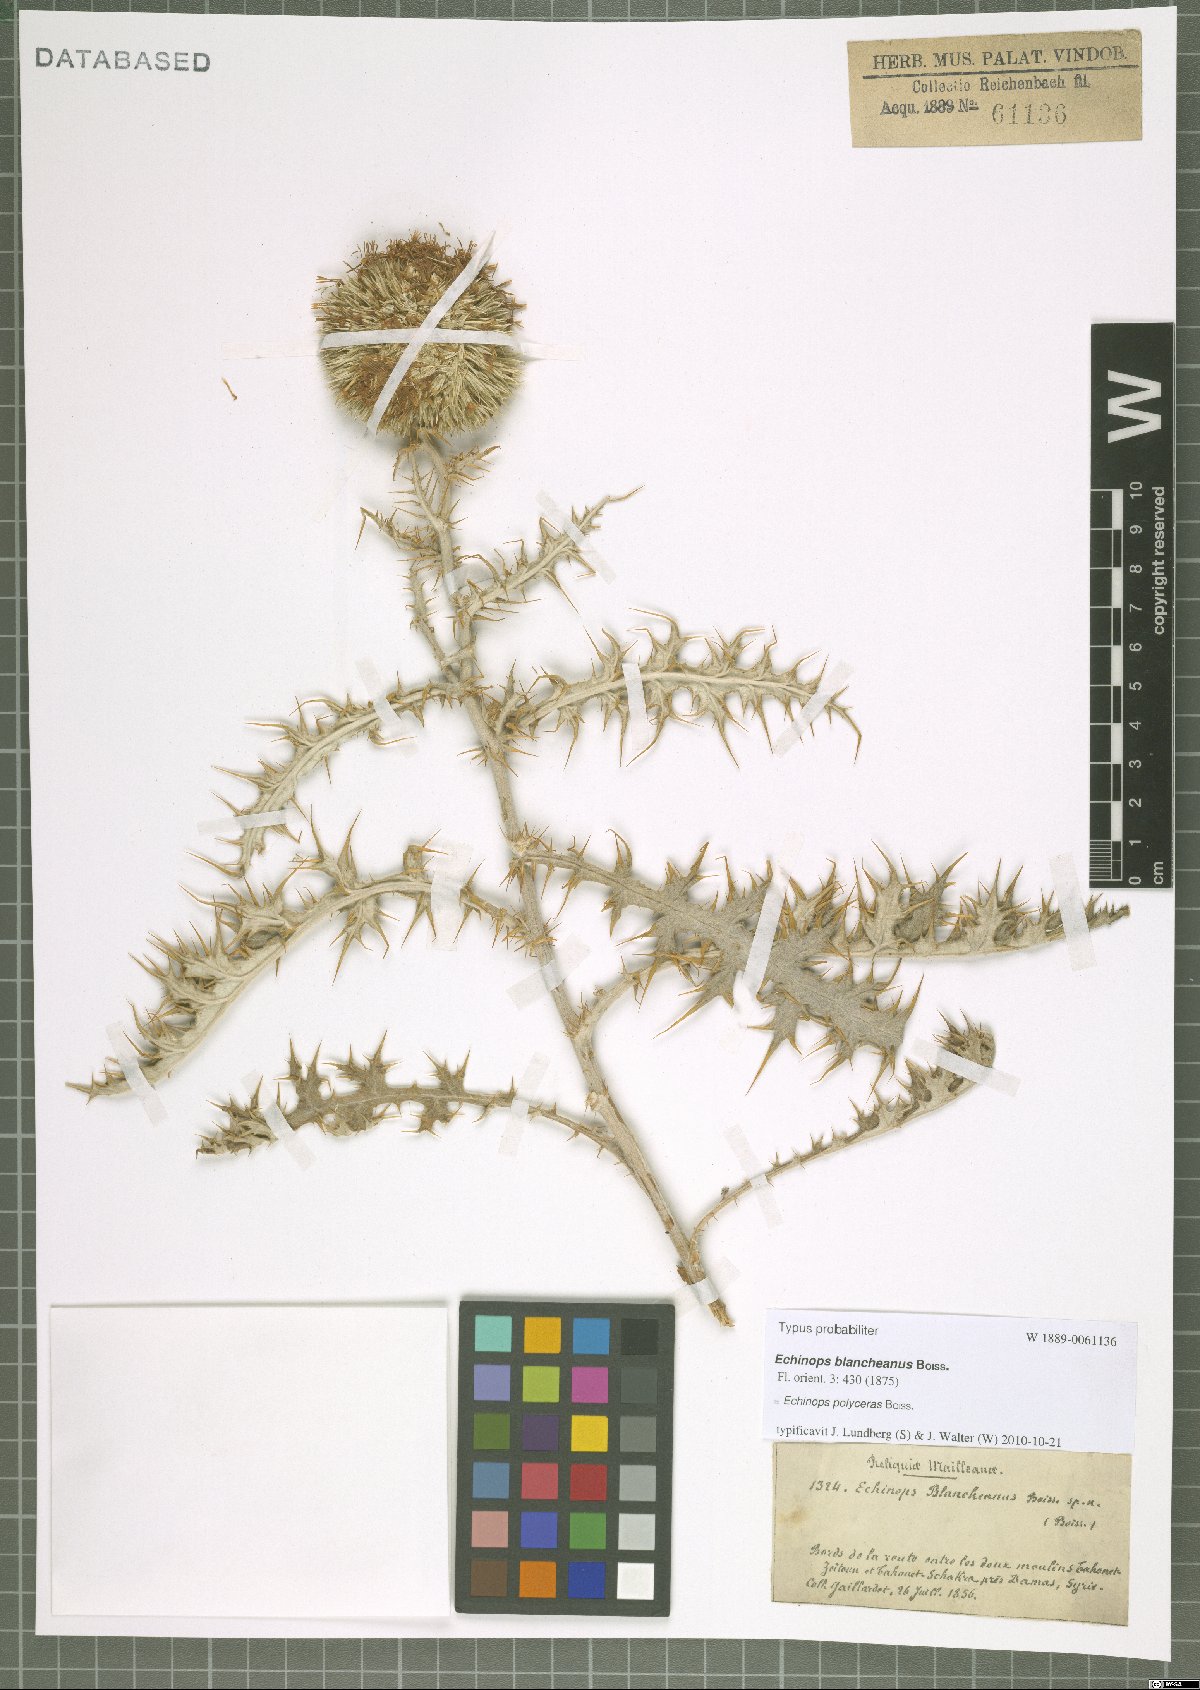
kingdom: Plantae
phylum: Tracheophyta
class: Magnoliopsida
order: Asterales
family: Asteraceae
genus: Echinops
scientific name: Echinops polyceras
